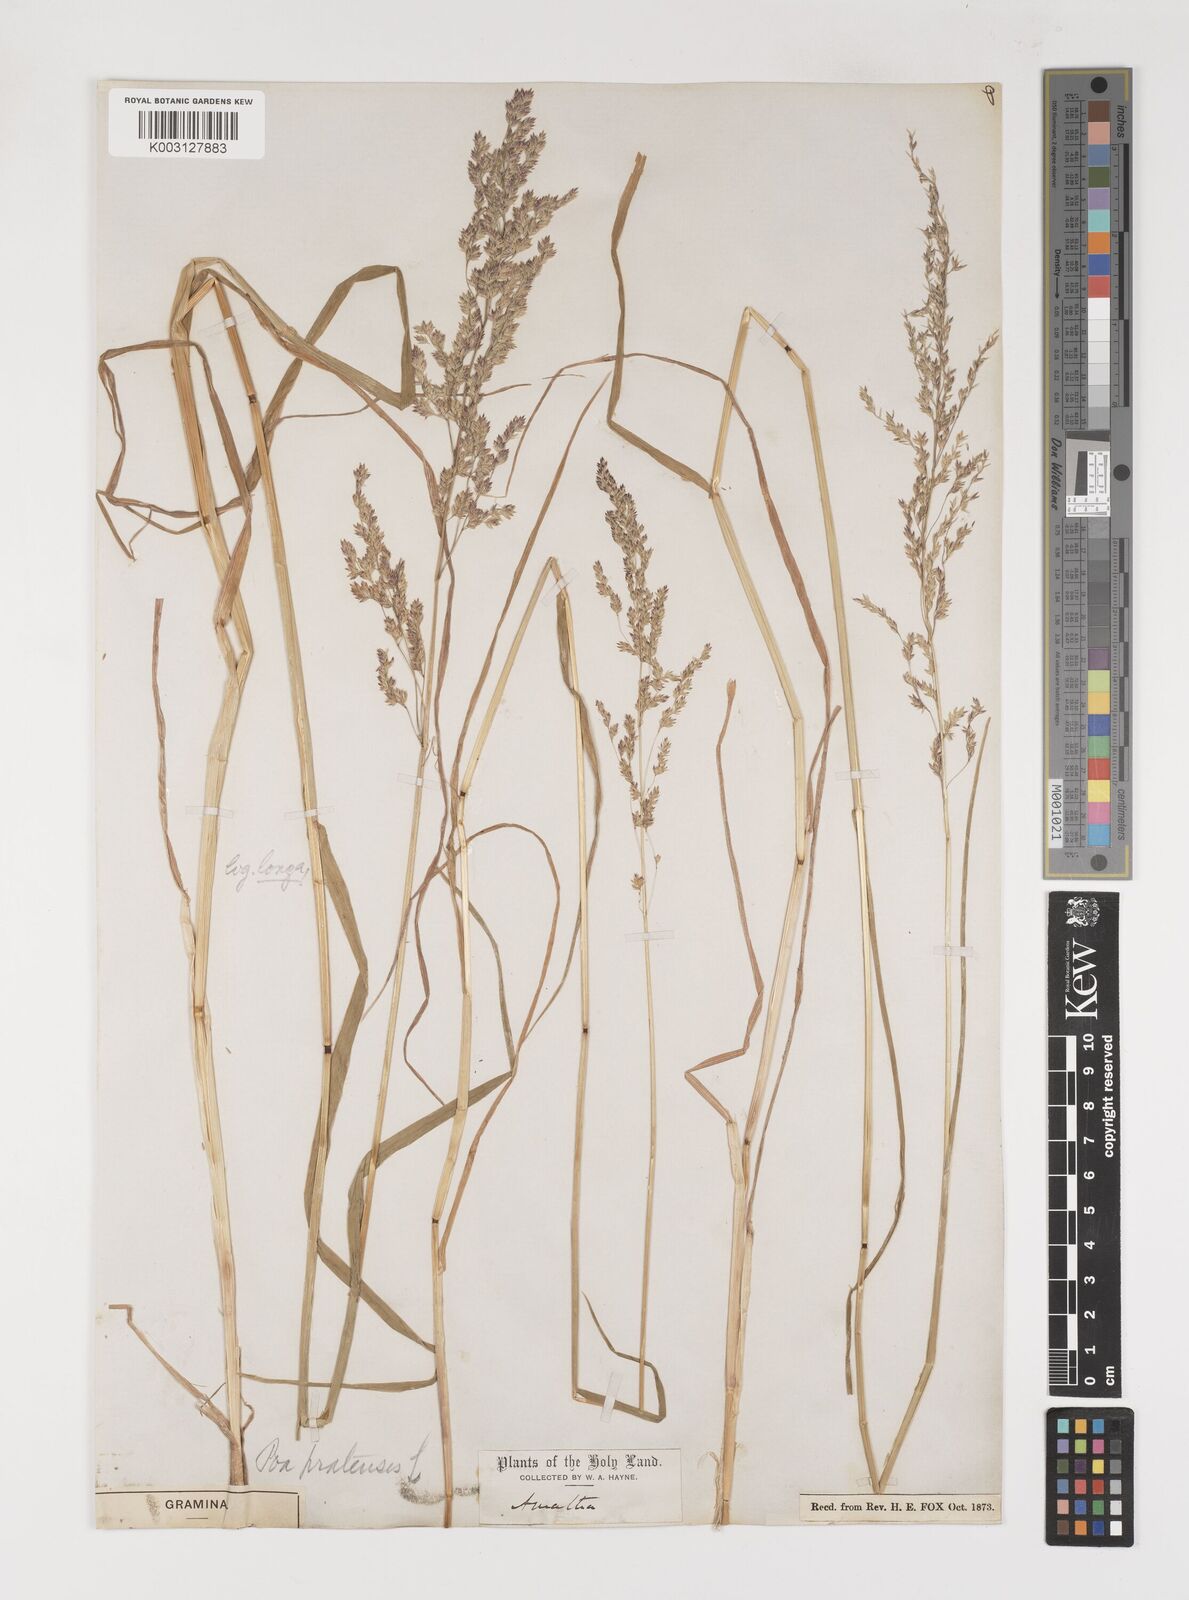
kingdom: Plantae
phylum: Tracheophyta
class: Liliopsida
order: Poales
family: Poaceae
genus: Poa
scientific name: Poa trivialis
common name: Rough bluegrass
